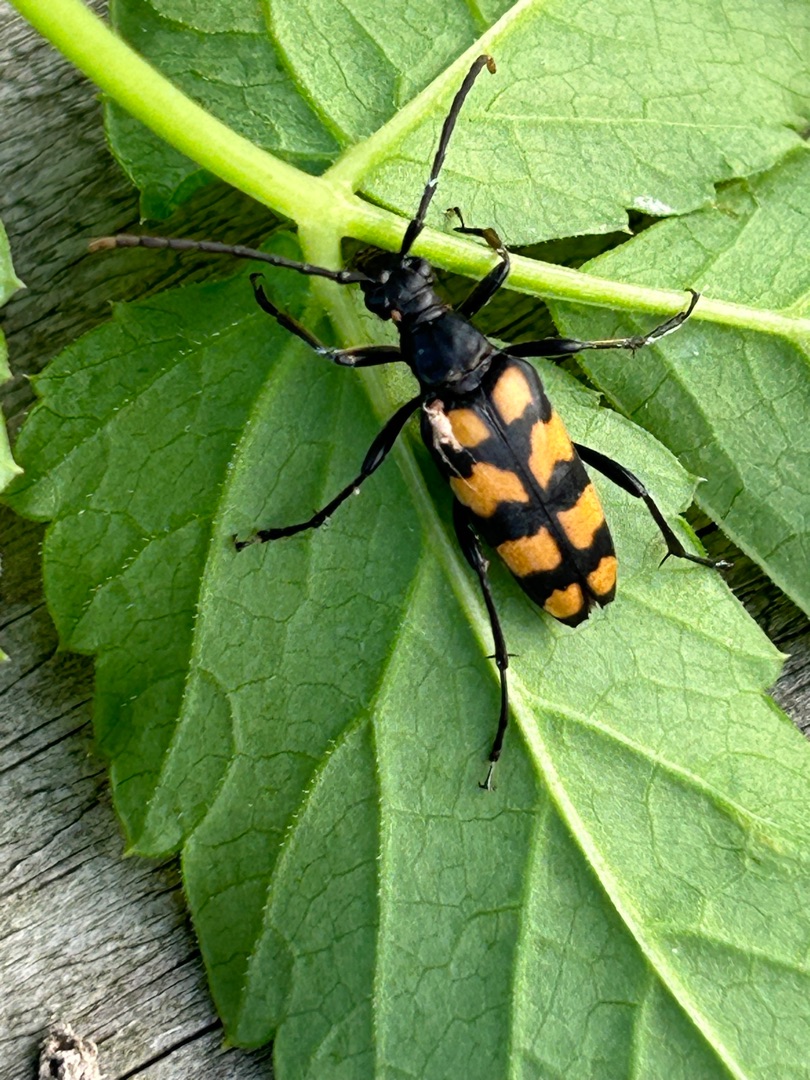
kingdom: Animalia
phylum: Arthropoda
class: Insecta
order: Coleoptera
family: Cerambycidae
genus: Leptura
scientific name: Leptura quadrifasciata
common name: Firebåndet blomsterbuk
